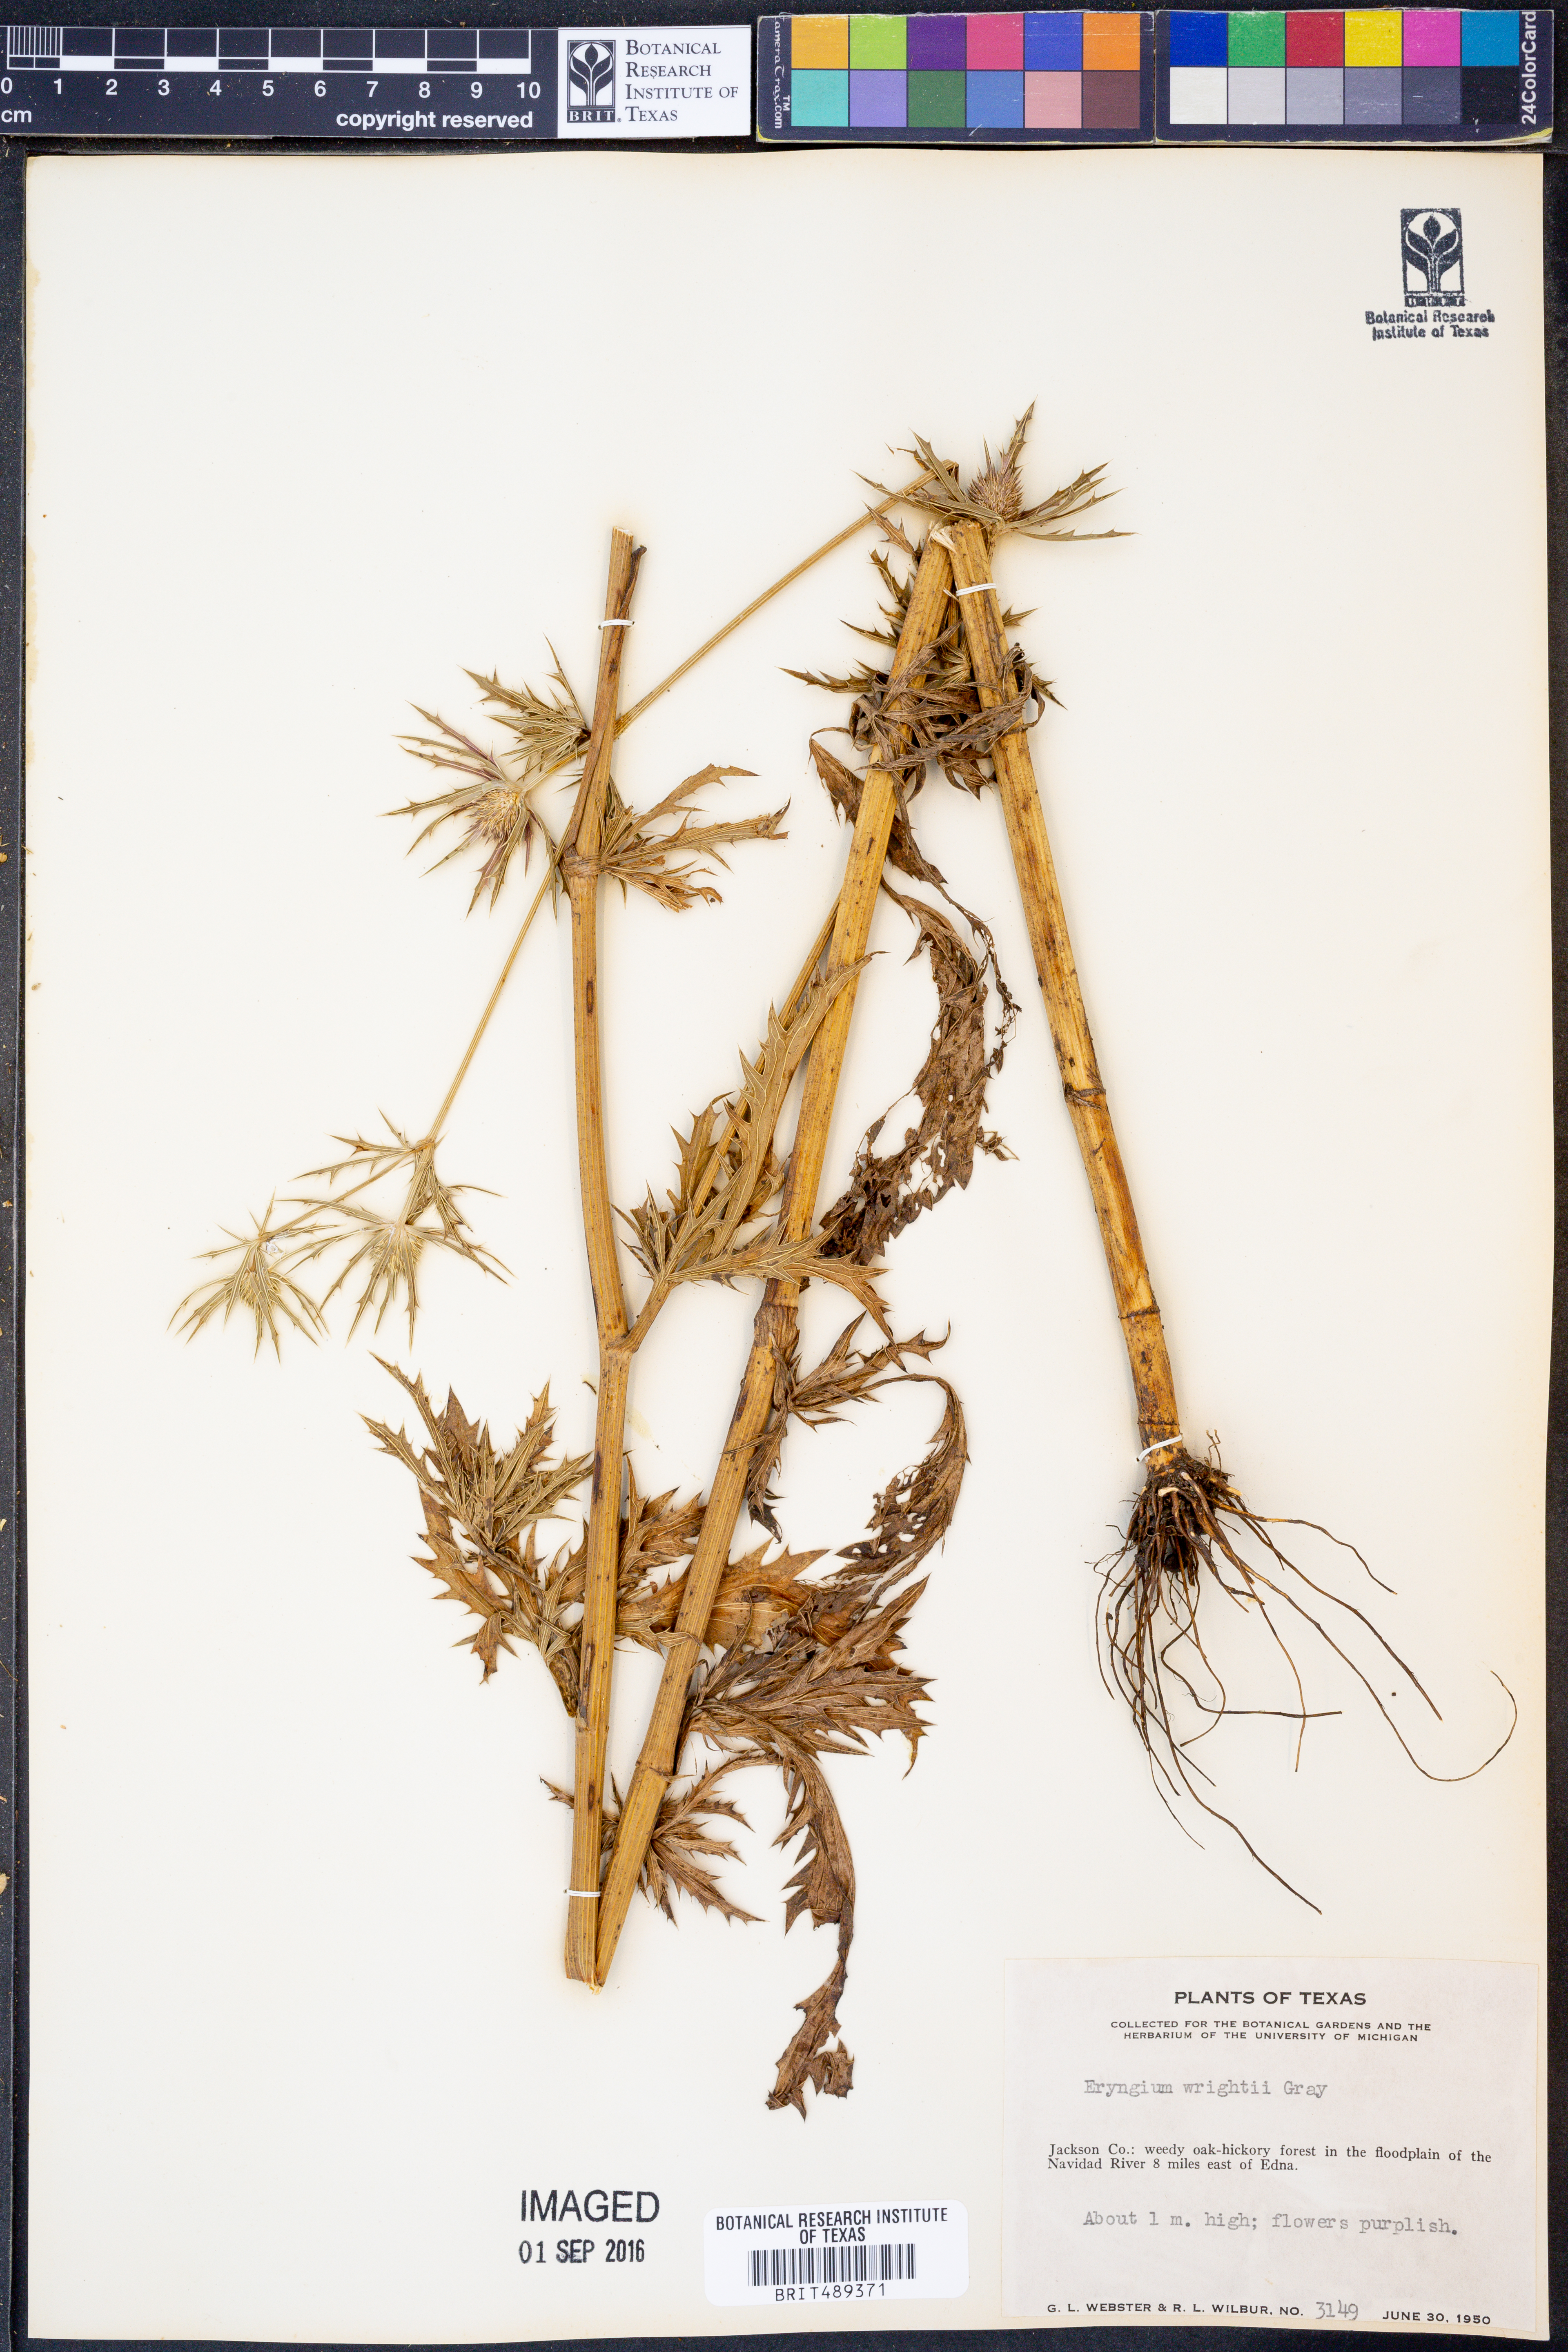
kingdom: Plantae
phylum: Tracheophyta
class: Magnoliopsida
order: Apiales
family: Apiaceae
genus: Eryngium
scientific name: Eryngium heterophyllum
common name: Mexican thistle
